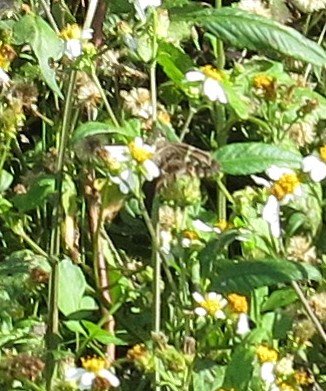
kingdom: Animalia
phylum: Arthropoda
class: Insecta
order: Lepidoptera
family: Hesperiidae
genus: Urbanus
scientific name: Urbanus proteus
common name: Long-tailed Skipper
